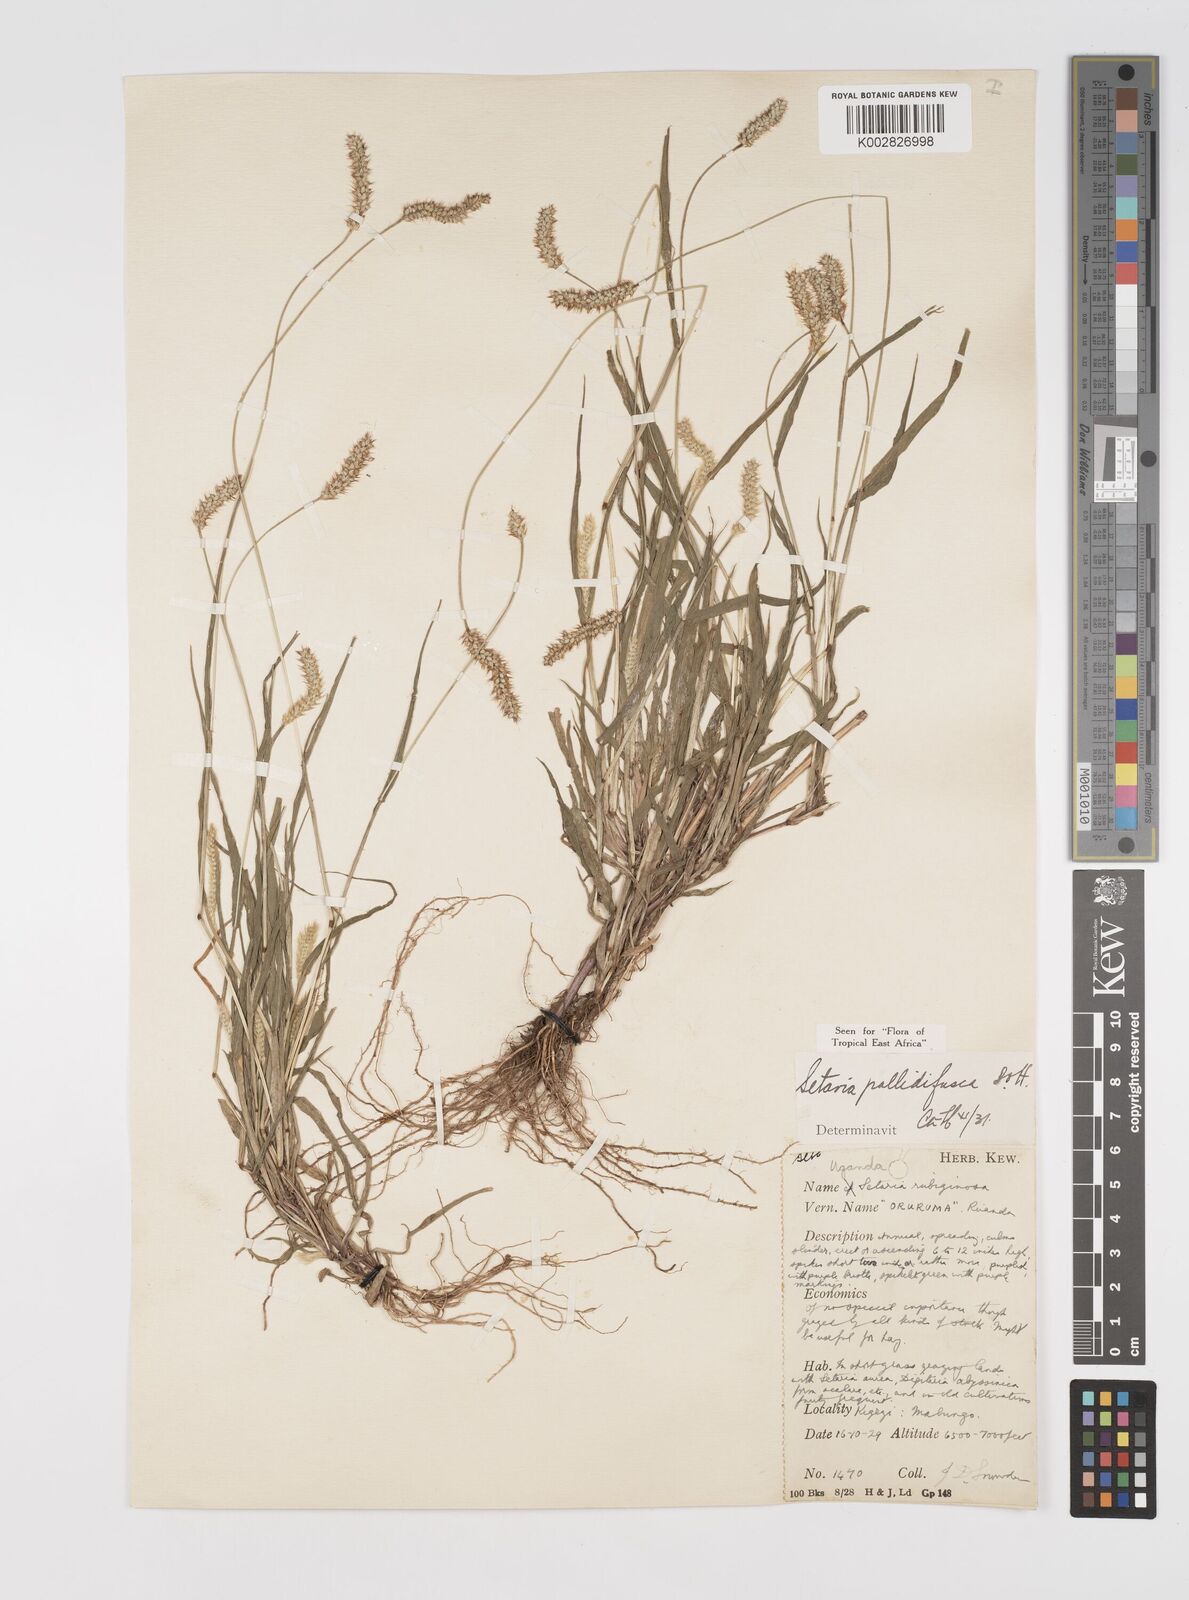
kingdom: Plantae
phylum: Tracheophyta
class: Liliopsida
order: Poales
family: Poaceae
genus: Setaria
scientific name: Setaria pumila
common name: Yellow bristle-grass
